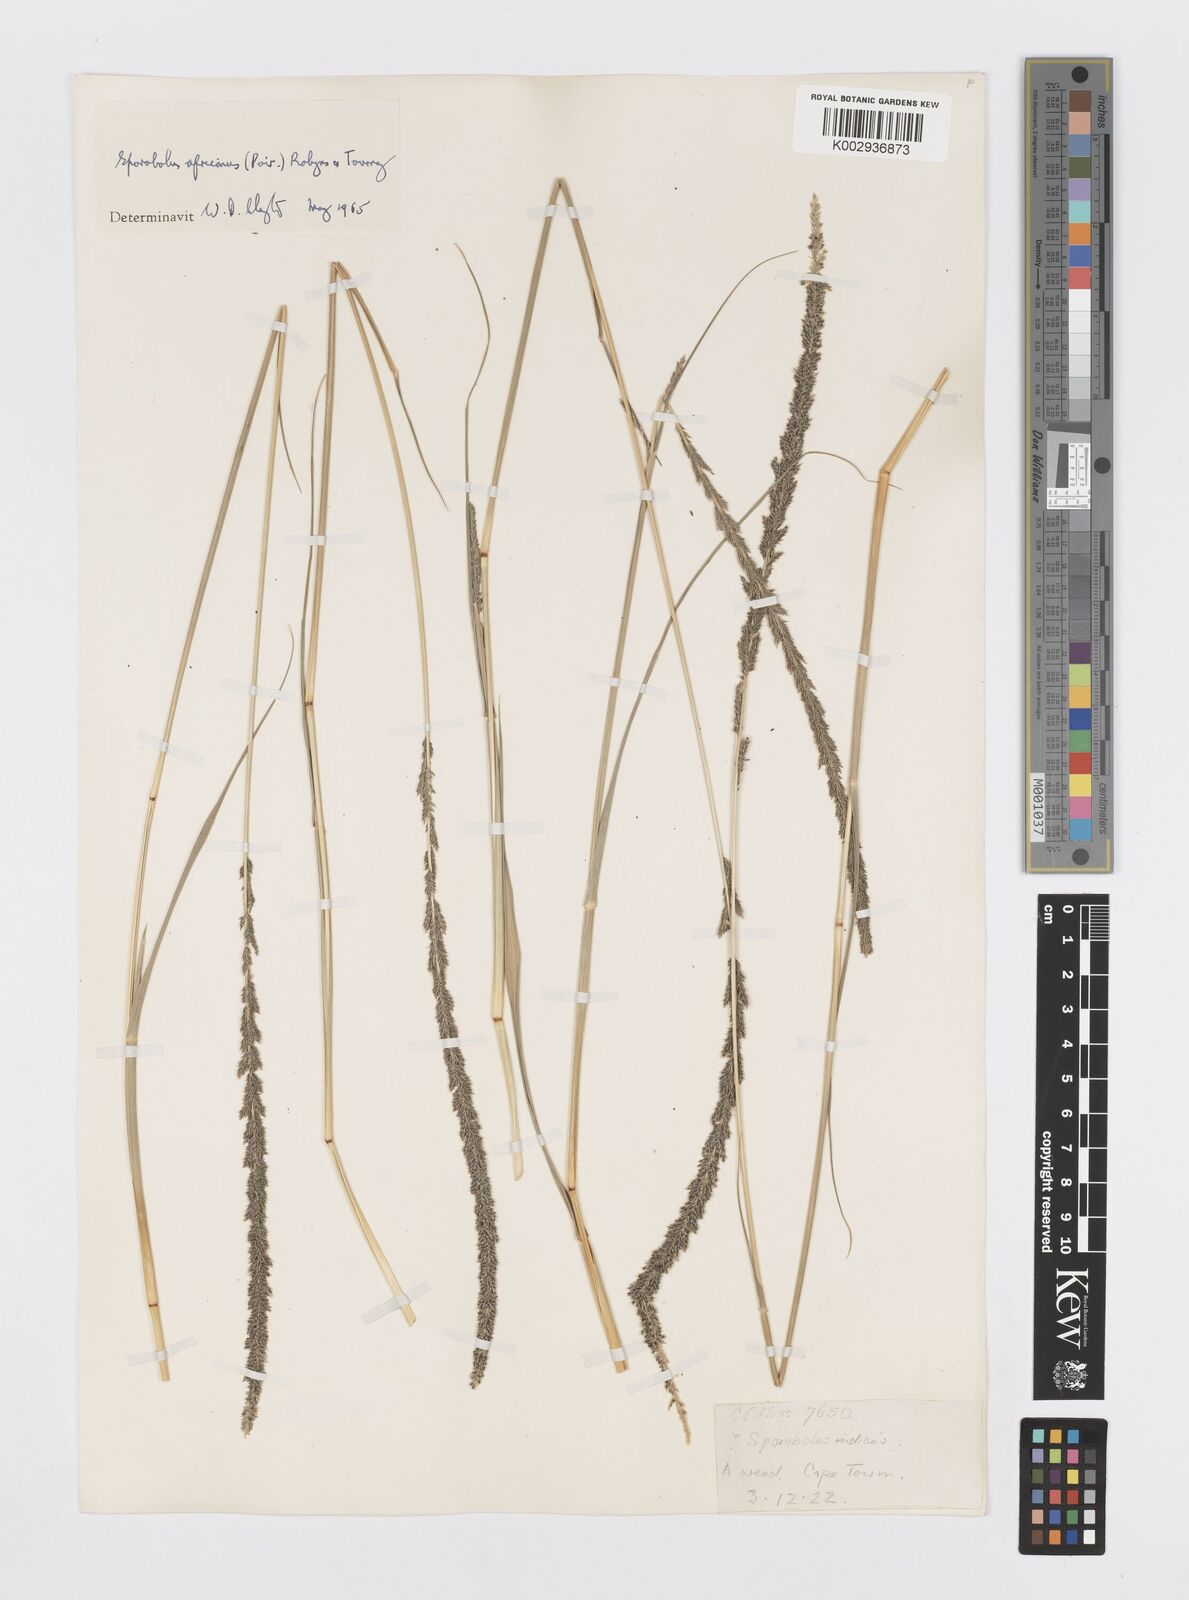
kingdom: Plantae
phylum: Tracheophyta
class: Liliopsida
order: Poales
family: Poaceae
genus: Sporobolus
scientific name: Sporobolus africanus
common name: African dropseed
